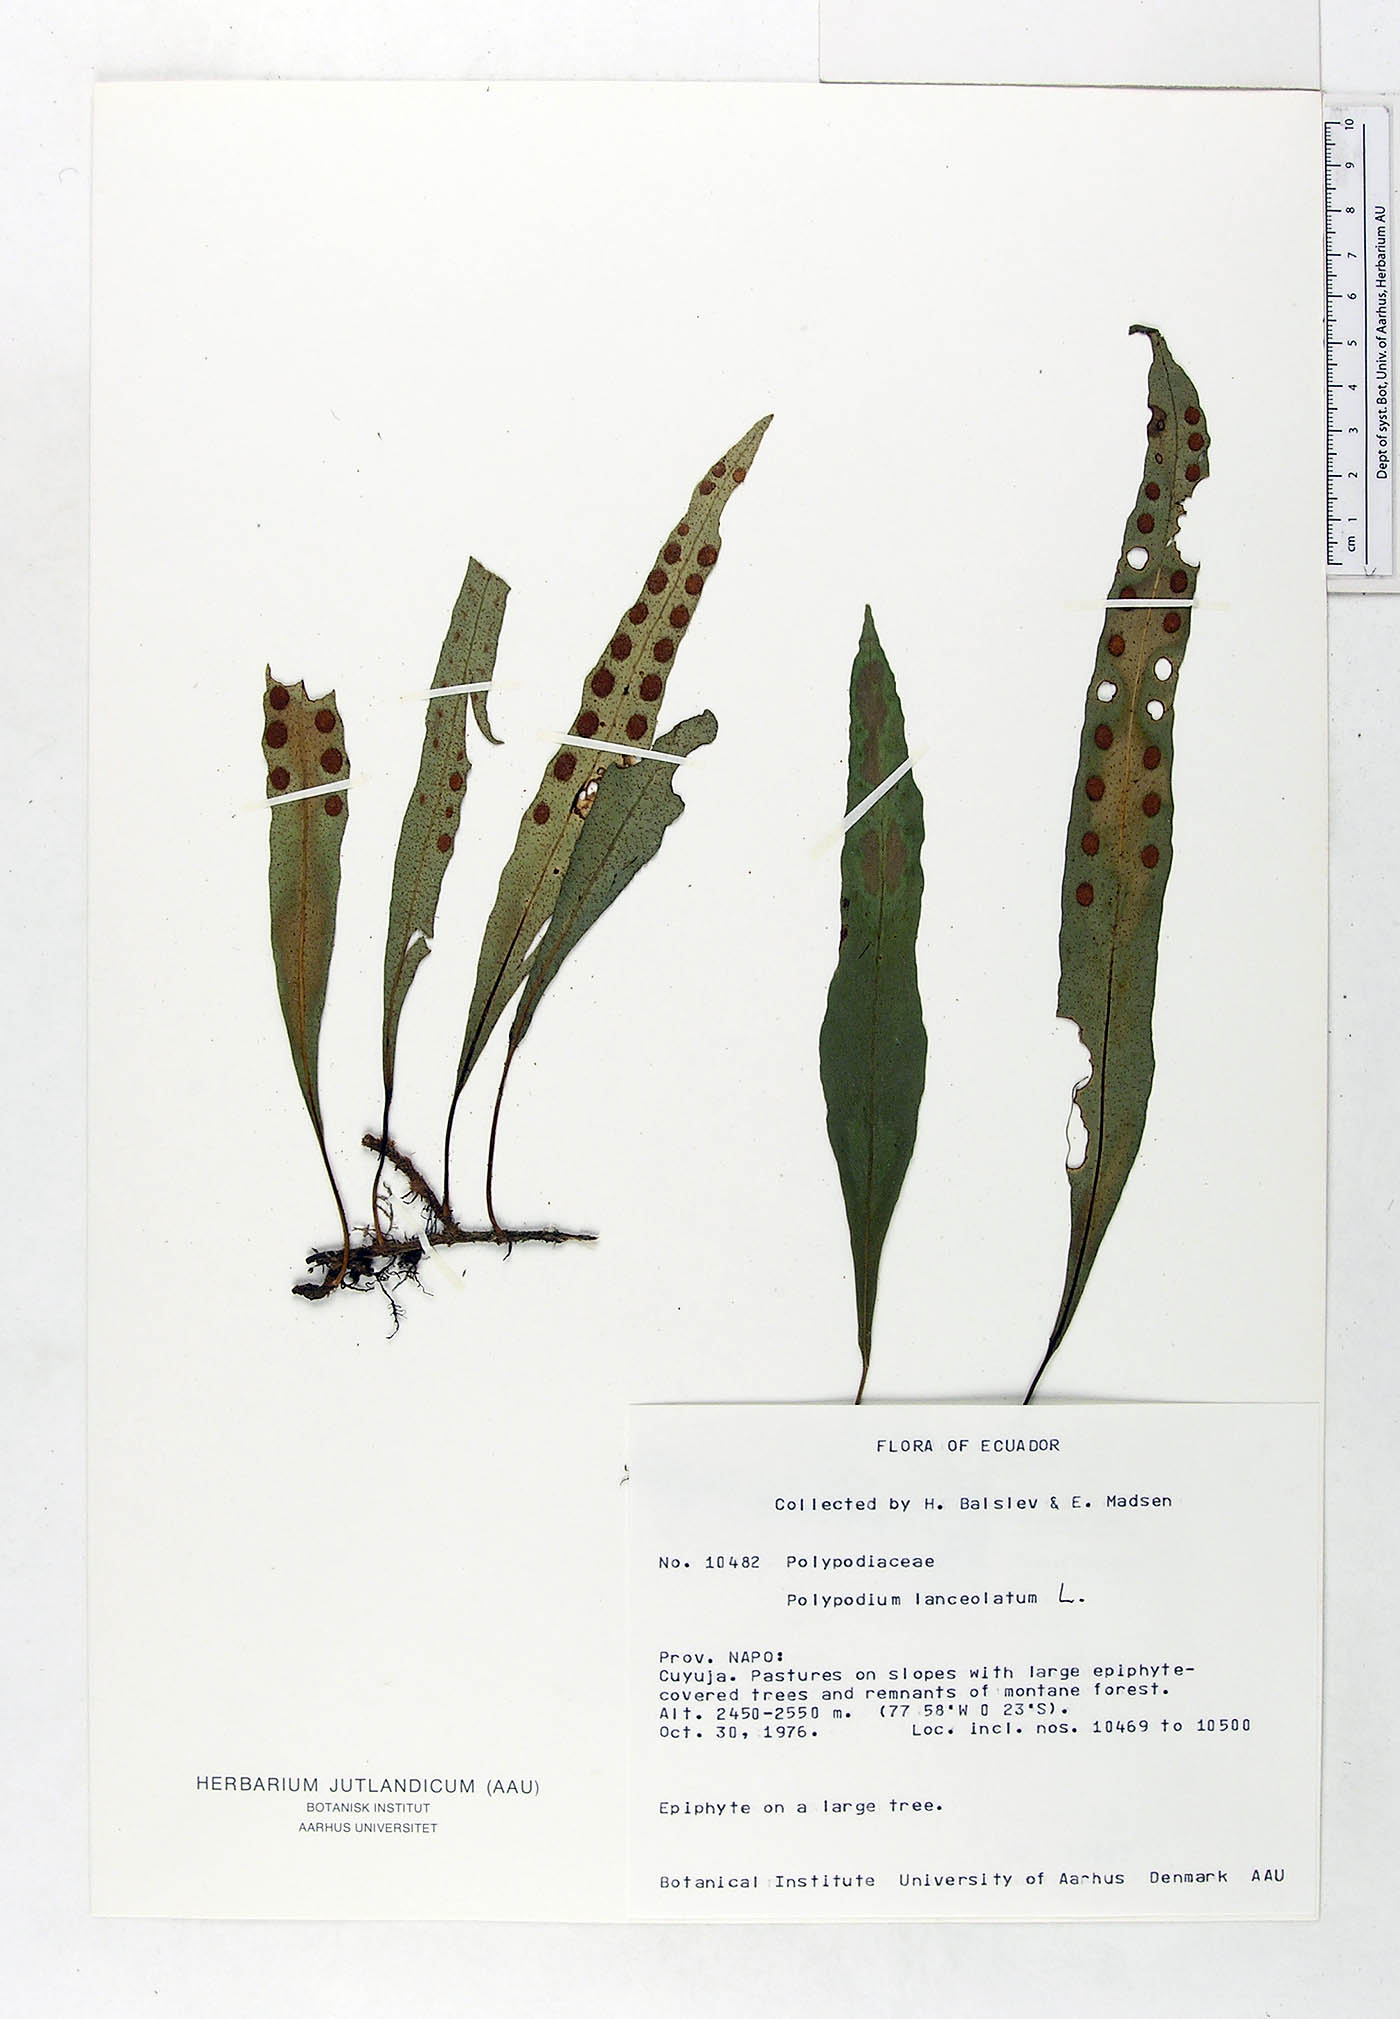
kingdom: Plantae
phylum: Tracheophyta
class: Polypodiopsida
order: Polypodiales
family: Polypodiaceae
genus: Pleopeltis
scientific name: Pleopeltis macrocarpa
